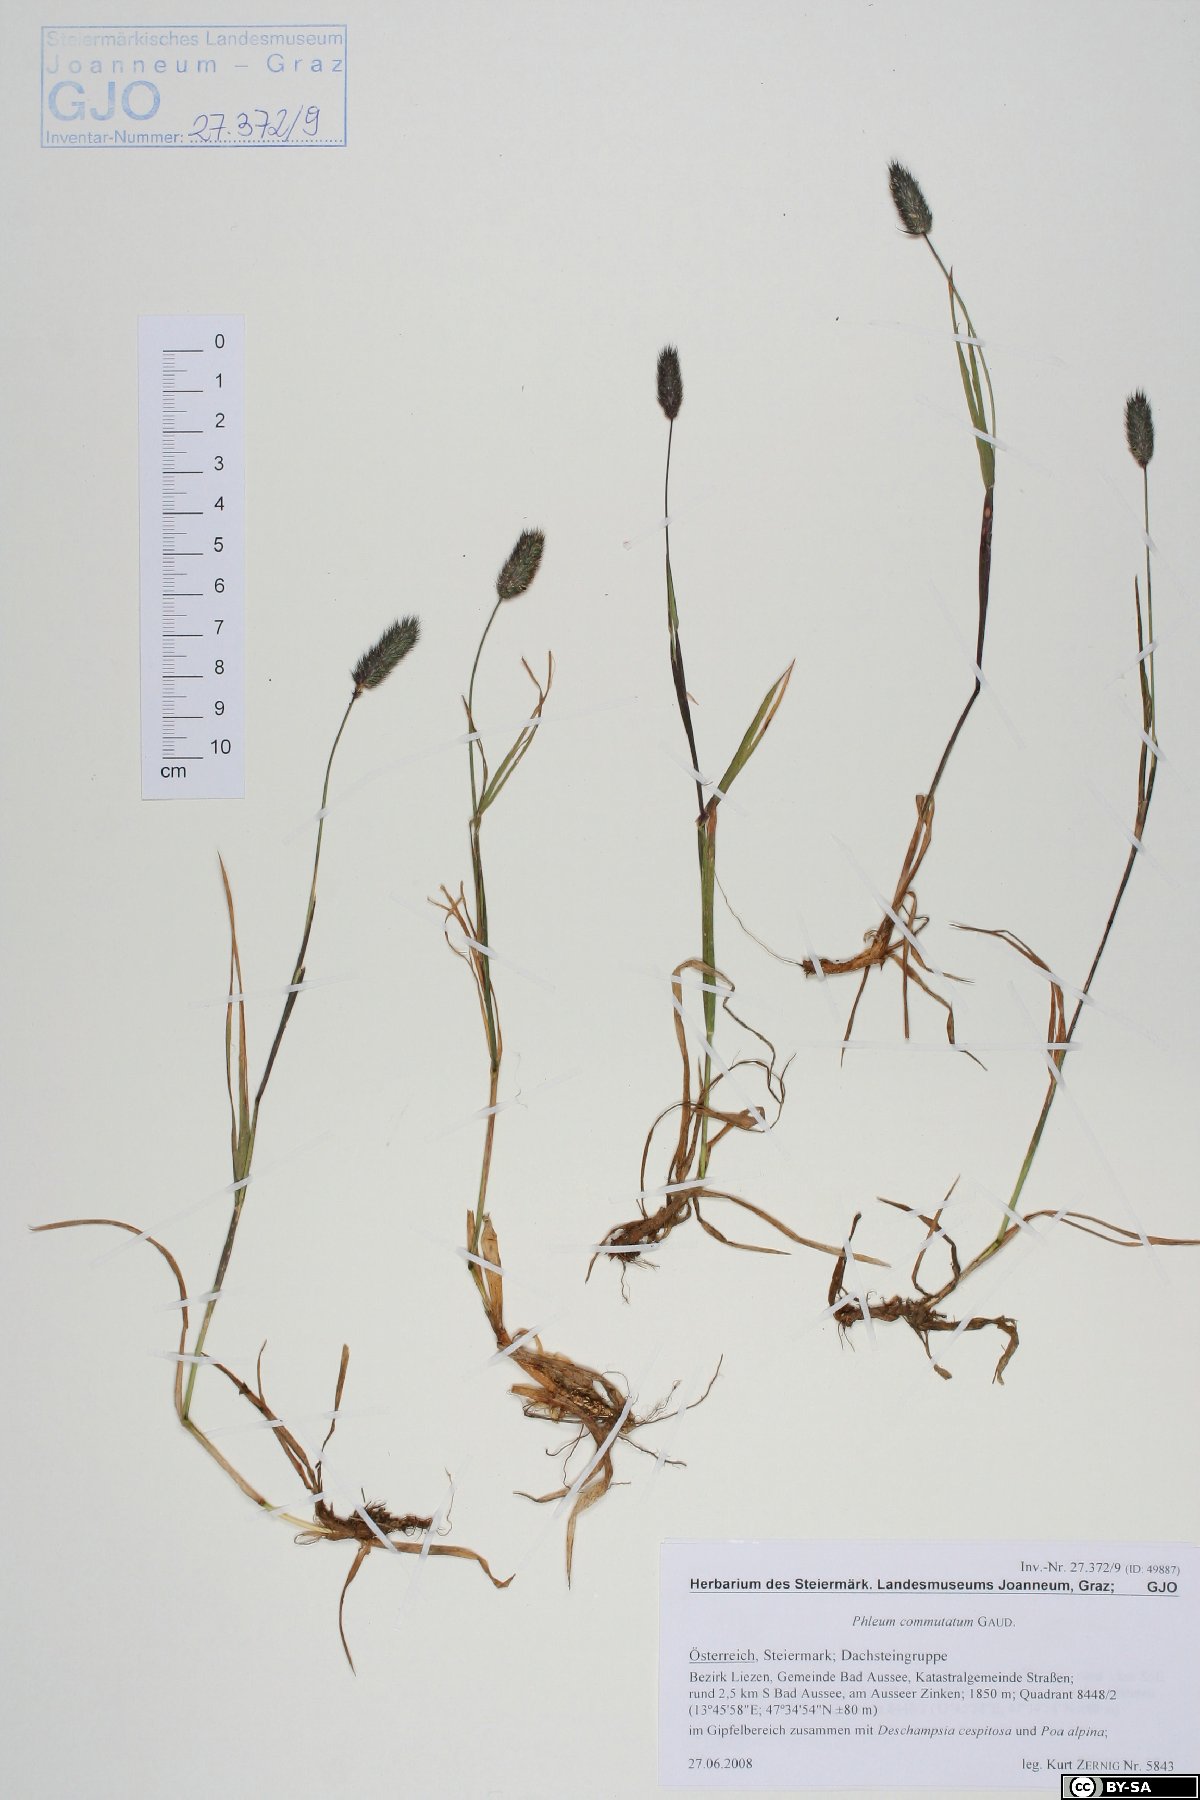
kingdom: Plantae
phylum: Tracheophyta
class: Liliopsida
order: Poales
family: Poaceae
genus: Phleum
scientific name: Phleum alpinum
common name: Alpine cat's-tail
